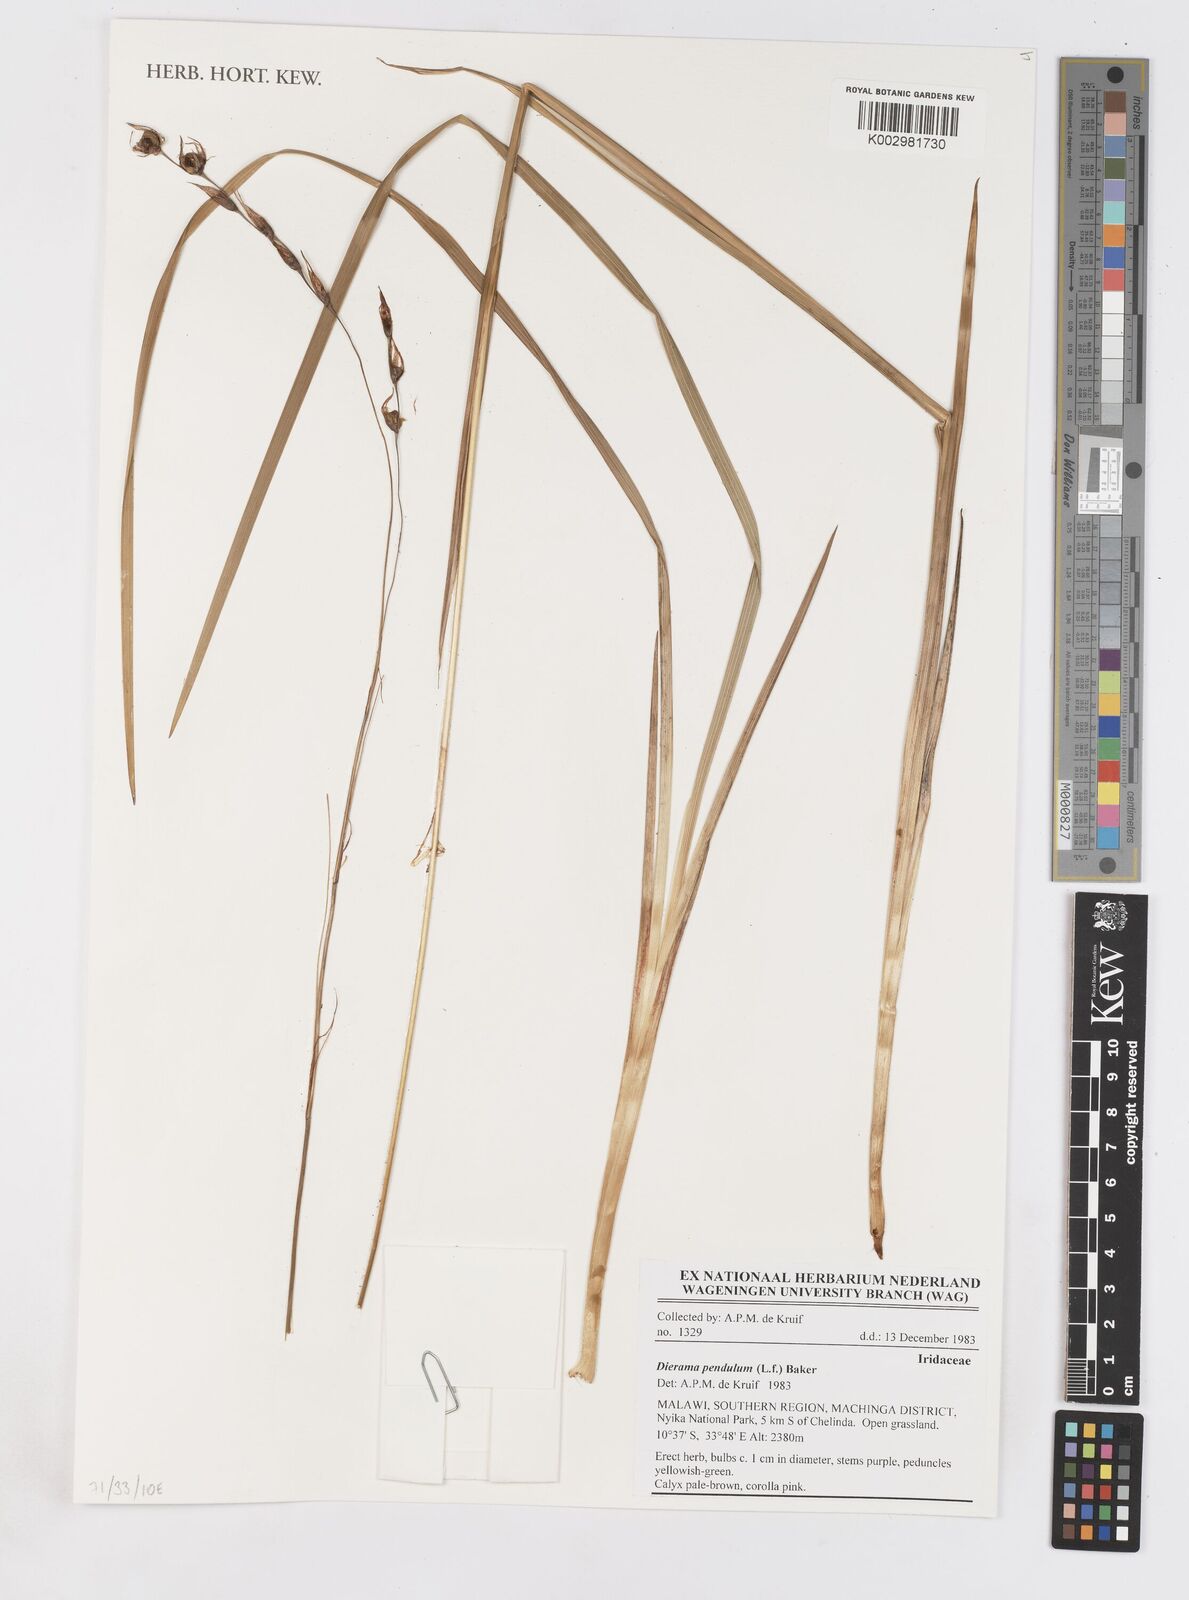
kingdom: Plantae
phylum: Tracheophyta
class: Liliopsida
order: Asparagales
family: Iridaceae
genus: Dierama
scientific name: Dierama pendulum
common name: Grassy-bell
